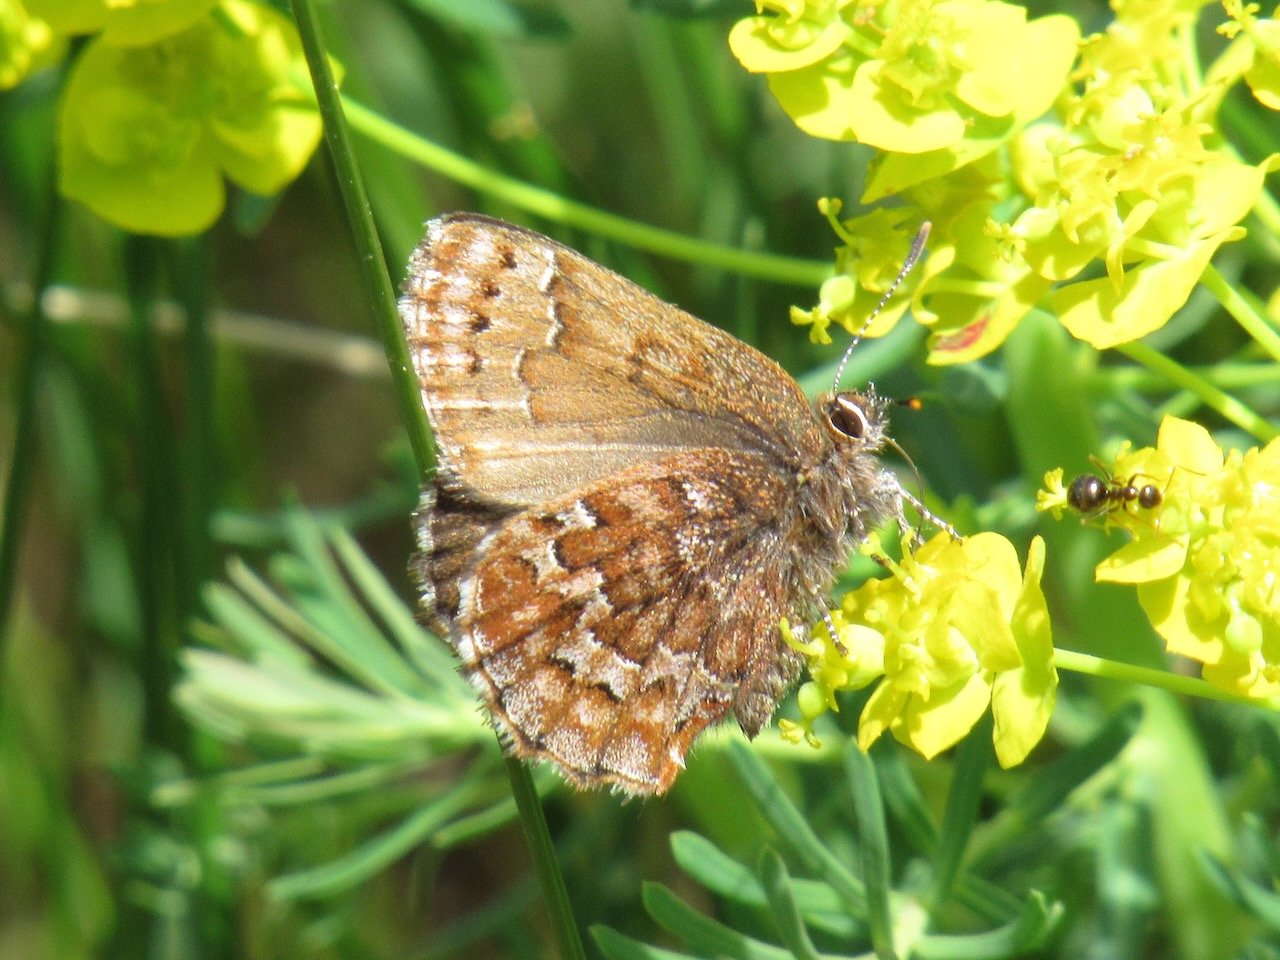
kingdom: Animalia
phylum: Arthropoda
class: Insecta
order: Lepidoptera
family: Lycaenidae
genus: Incisalia
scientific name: Incisalia niphon
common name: Eastern Pine Elfin
